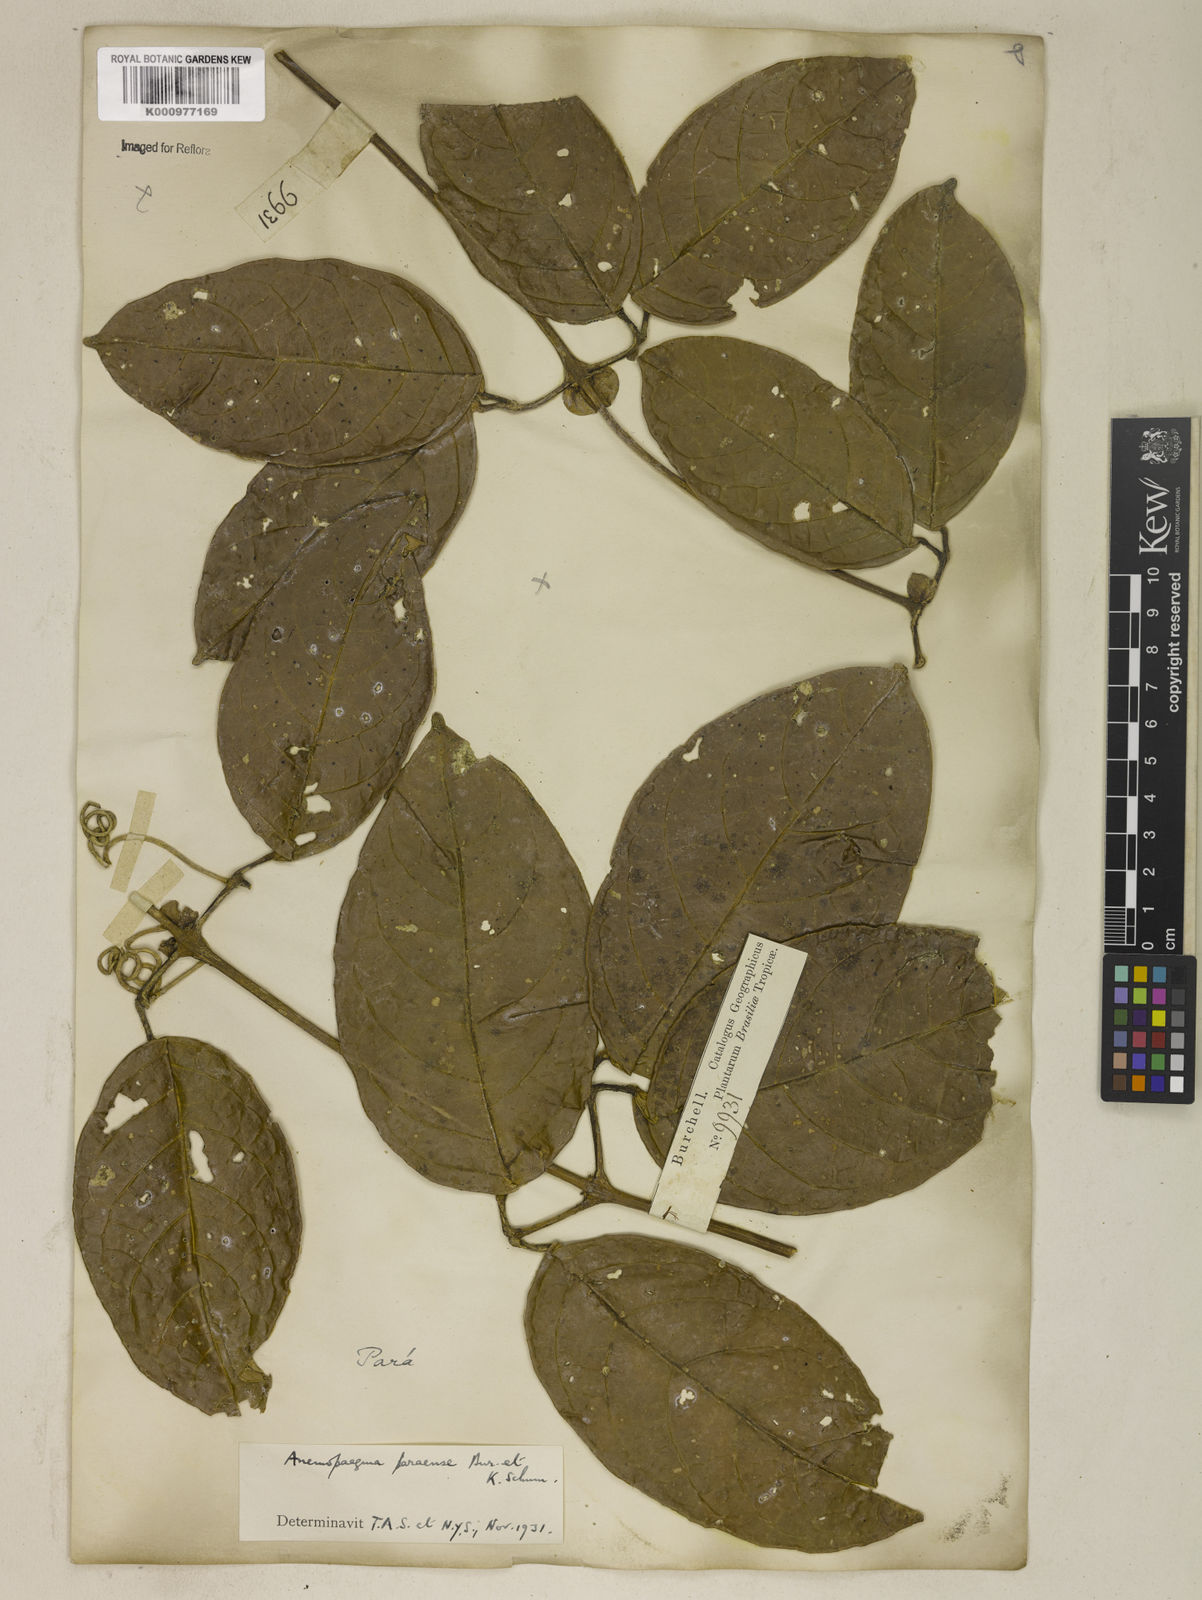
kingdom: Plantae
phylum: Tracheophyta
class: Magnoliopsida
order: Lamiales
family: Bignoniaceae
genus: Anemopaegma
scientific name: Anemopaegma
